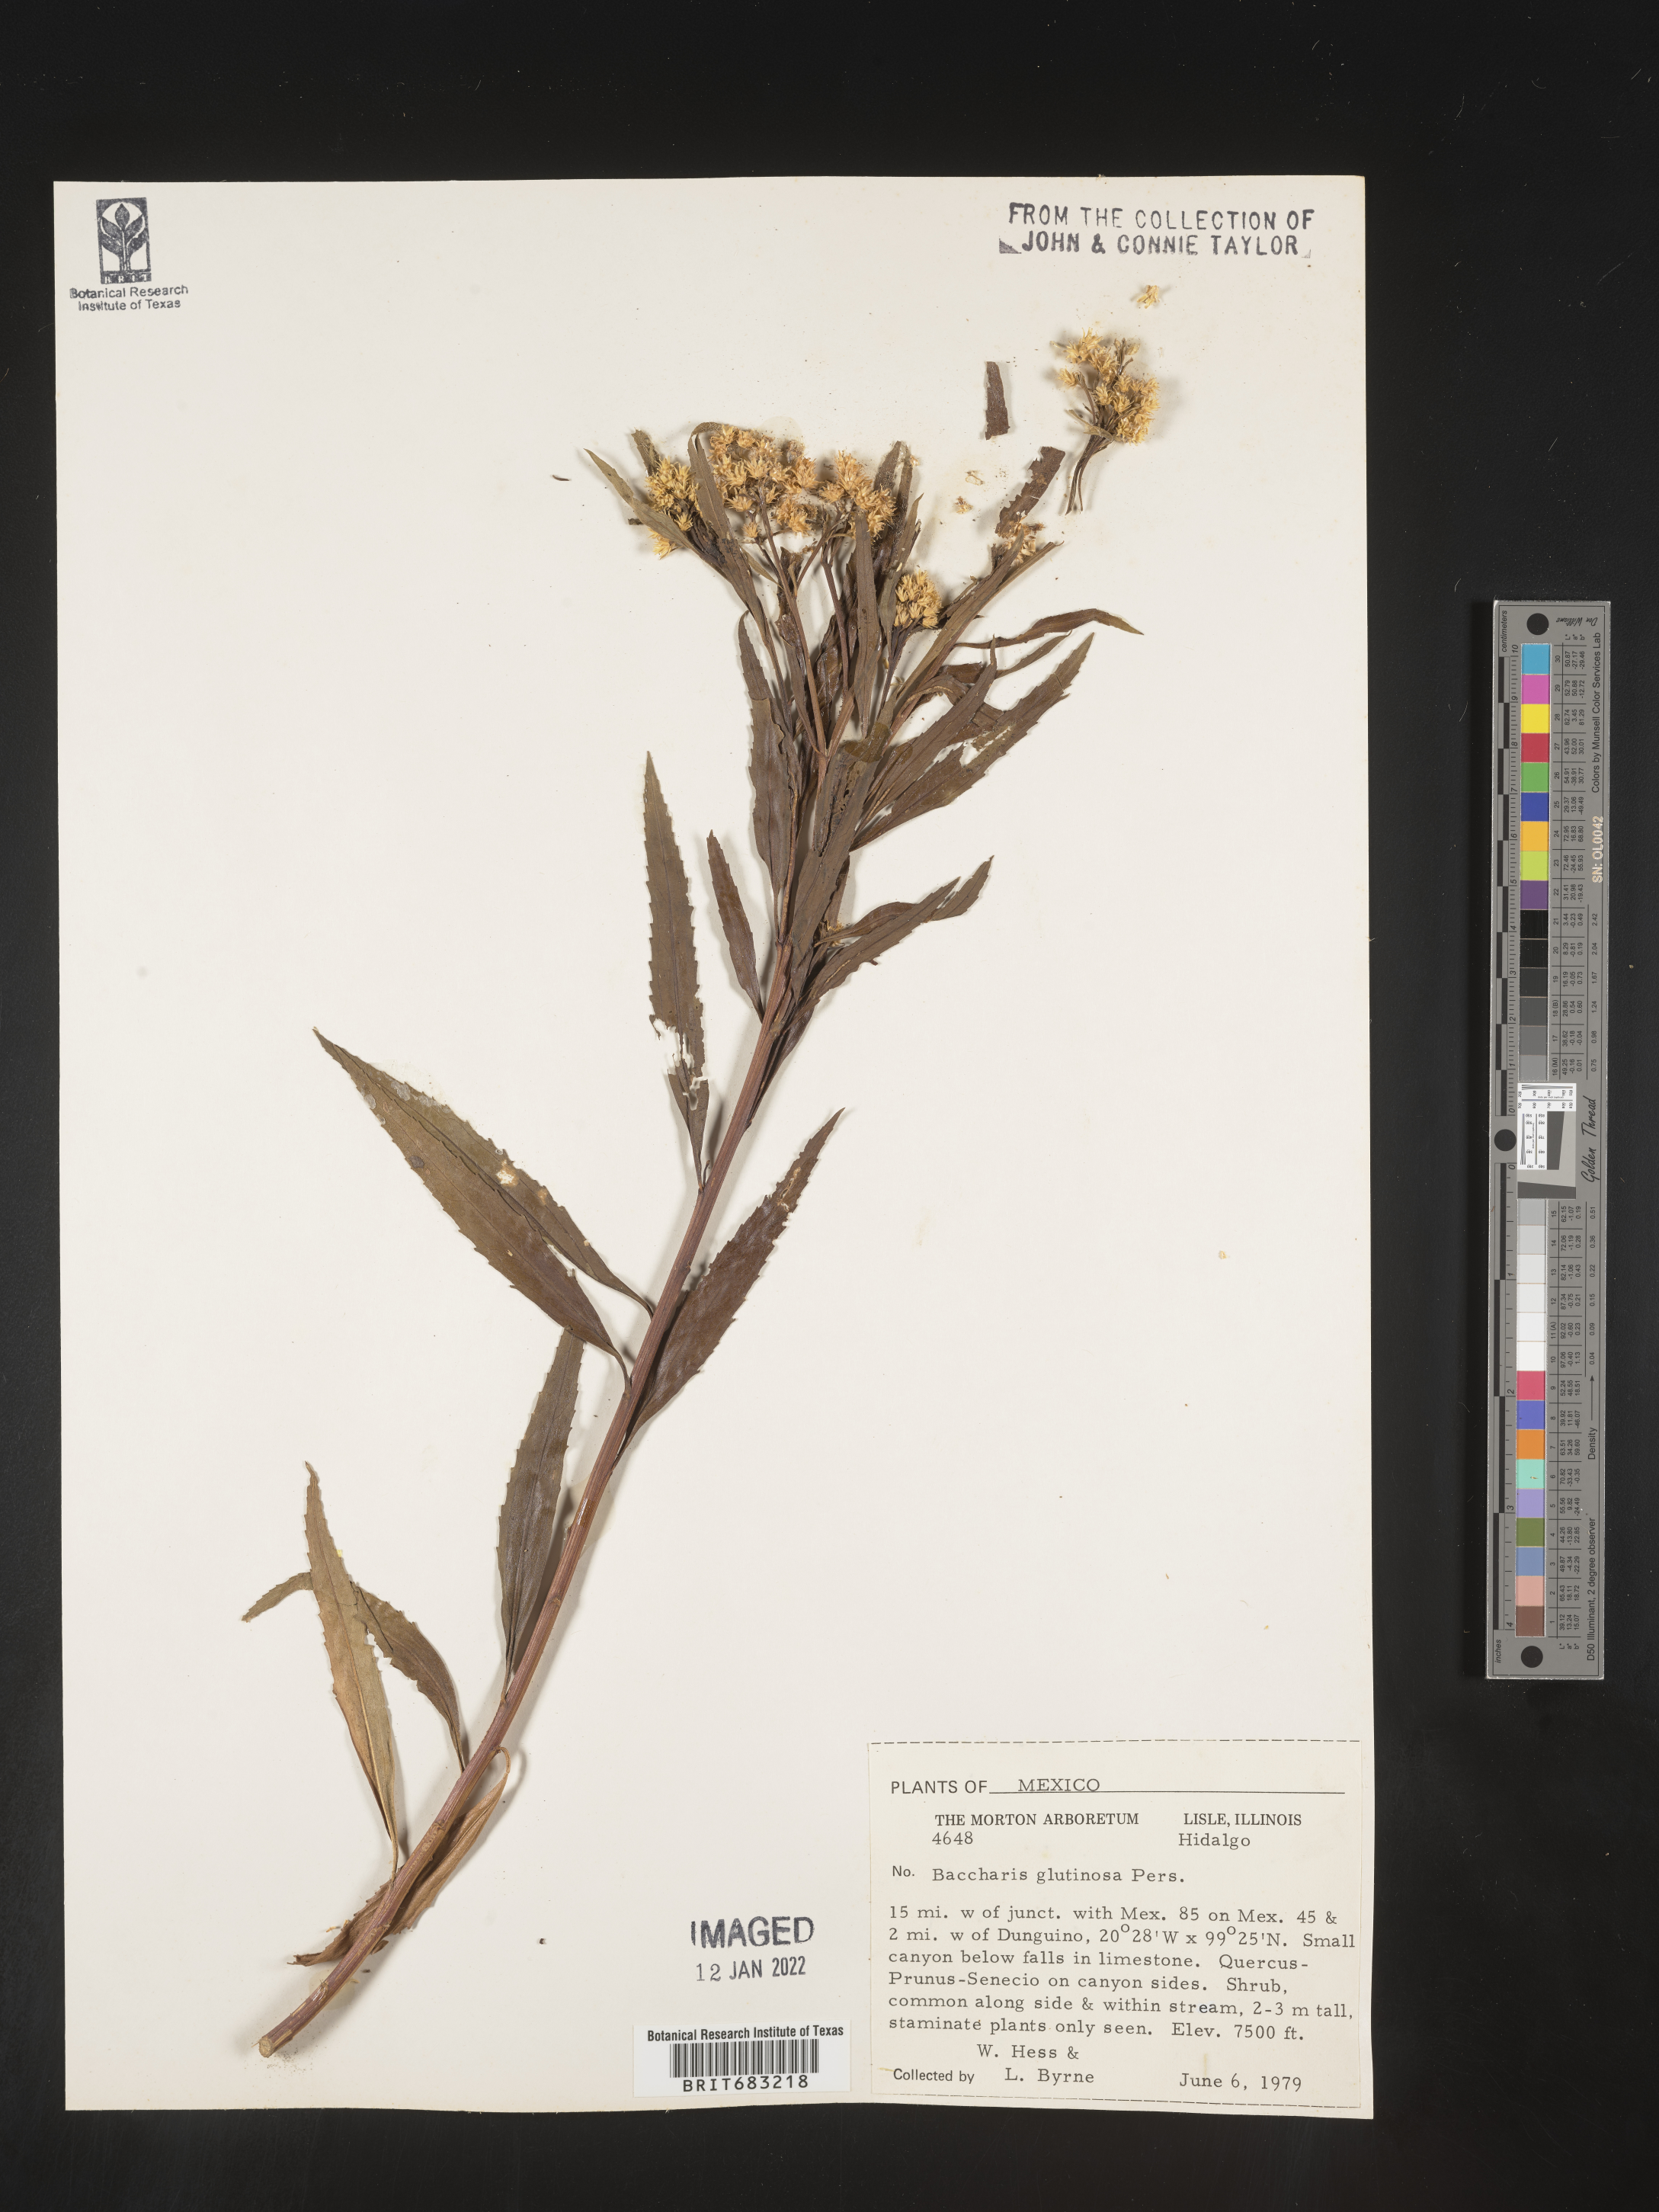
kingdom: Plantae
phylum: Tracheophyta
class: Magnoliopsida
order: Asterales
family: Asteraceae
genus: Baccharis
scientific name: Baccharis salicifolia
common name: Sticky baccharis
